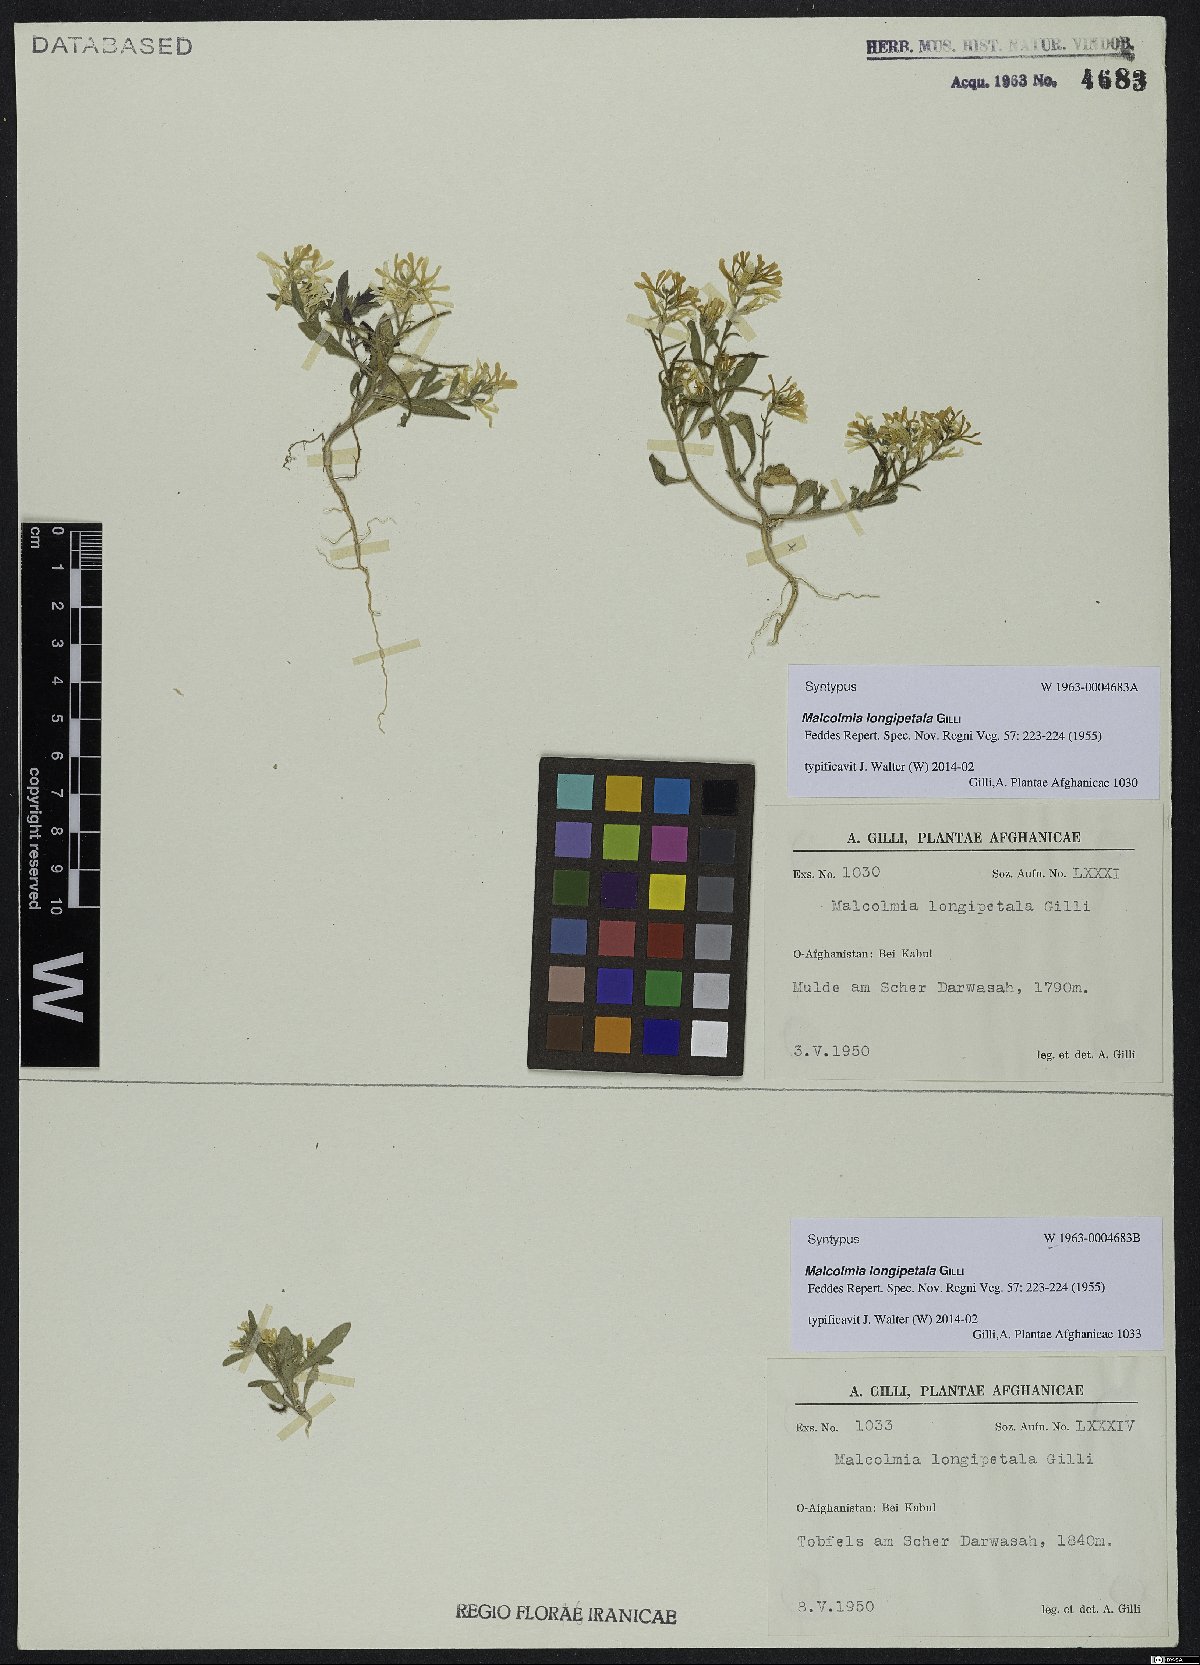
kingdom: Plantae
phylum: Tracheophyta
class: Magnoliopsida
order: Brassicales
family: Brassicaceae
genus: Strigosella
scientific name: Strigosella longipetala
